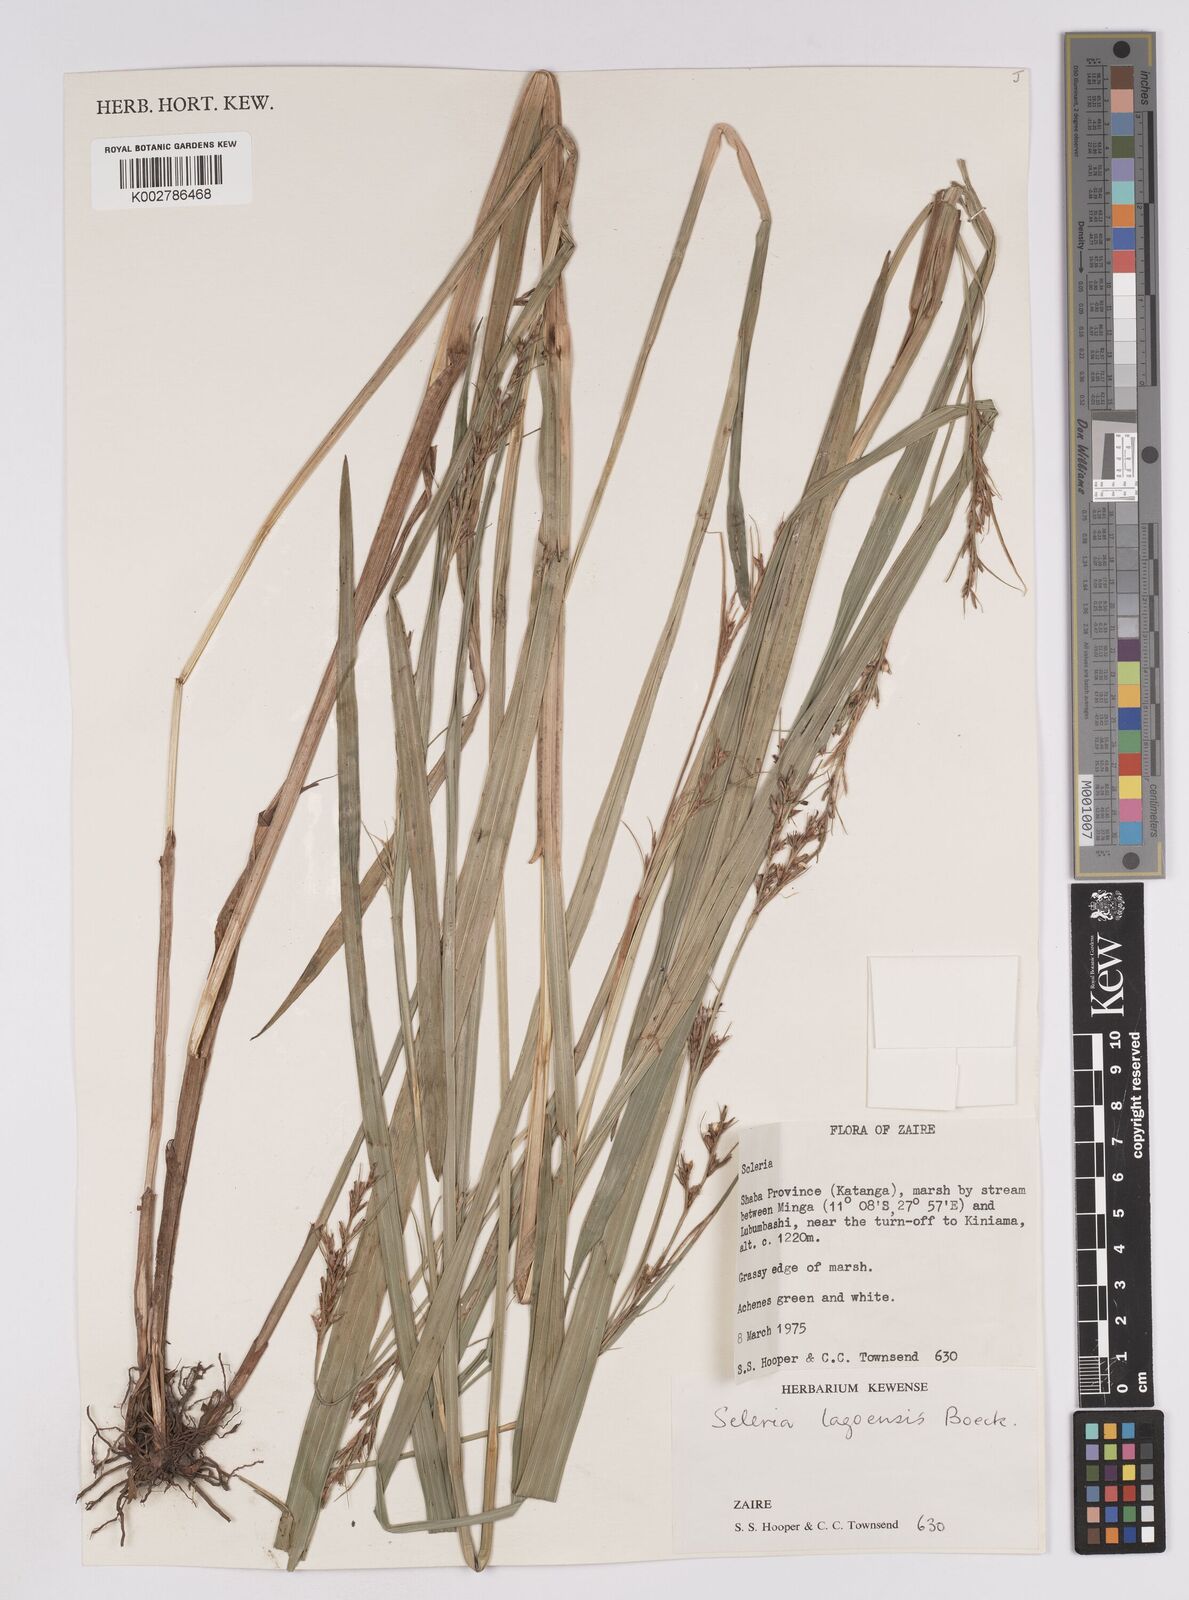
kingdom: Plantae
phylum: Tracheophyta
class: Liliopsida
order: Poales
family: Cyperaceae
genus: Scleria
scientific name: Scleria lagoensis
